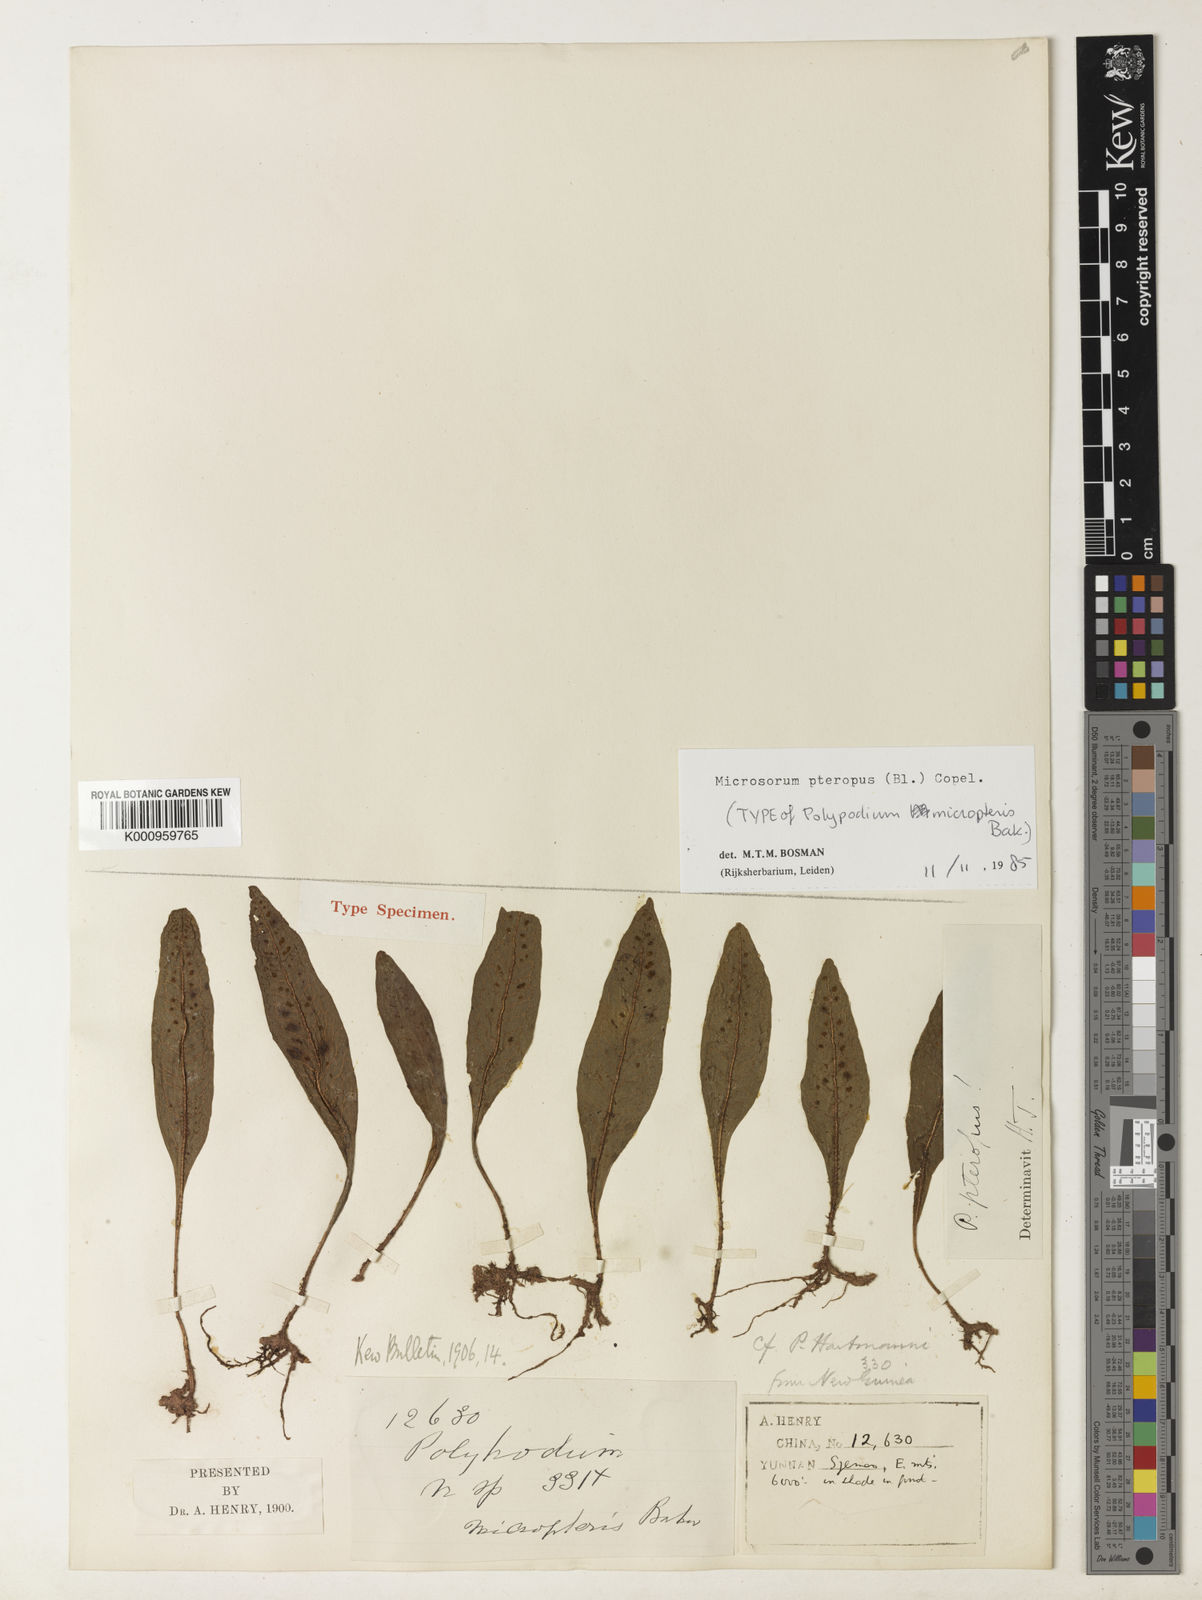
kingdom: Plantae
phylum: Tracheophyta
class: Polypodiopsida
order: Polypodiales
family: Polypodiaceae
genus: Leptochilus
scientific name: Leptochilus pteropus
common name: Java fern
